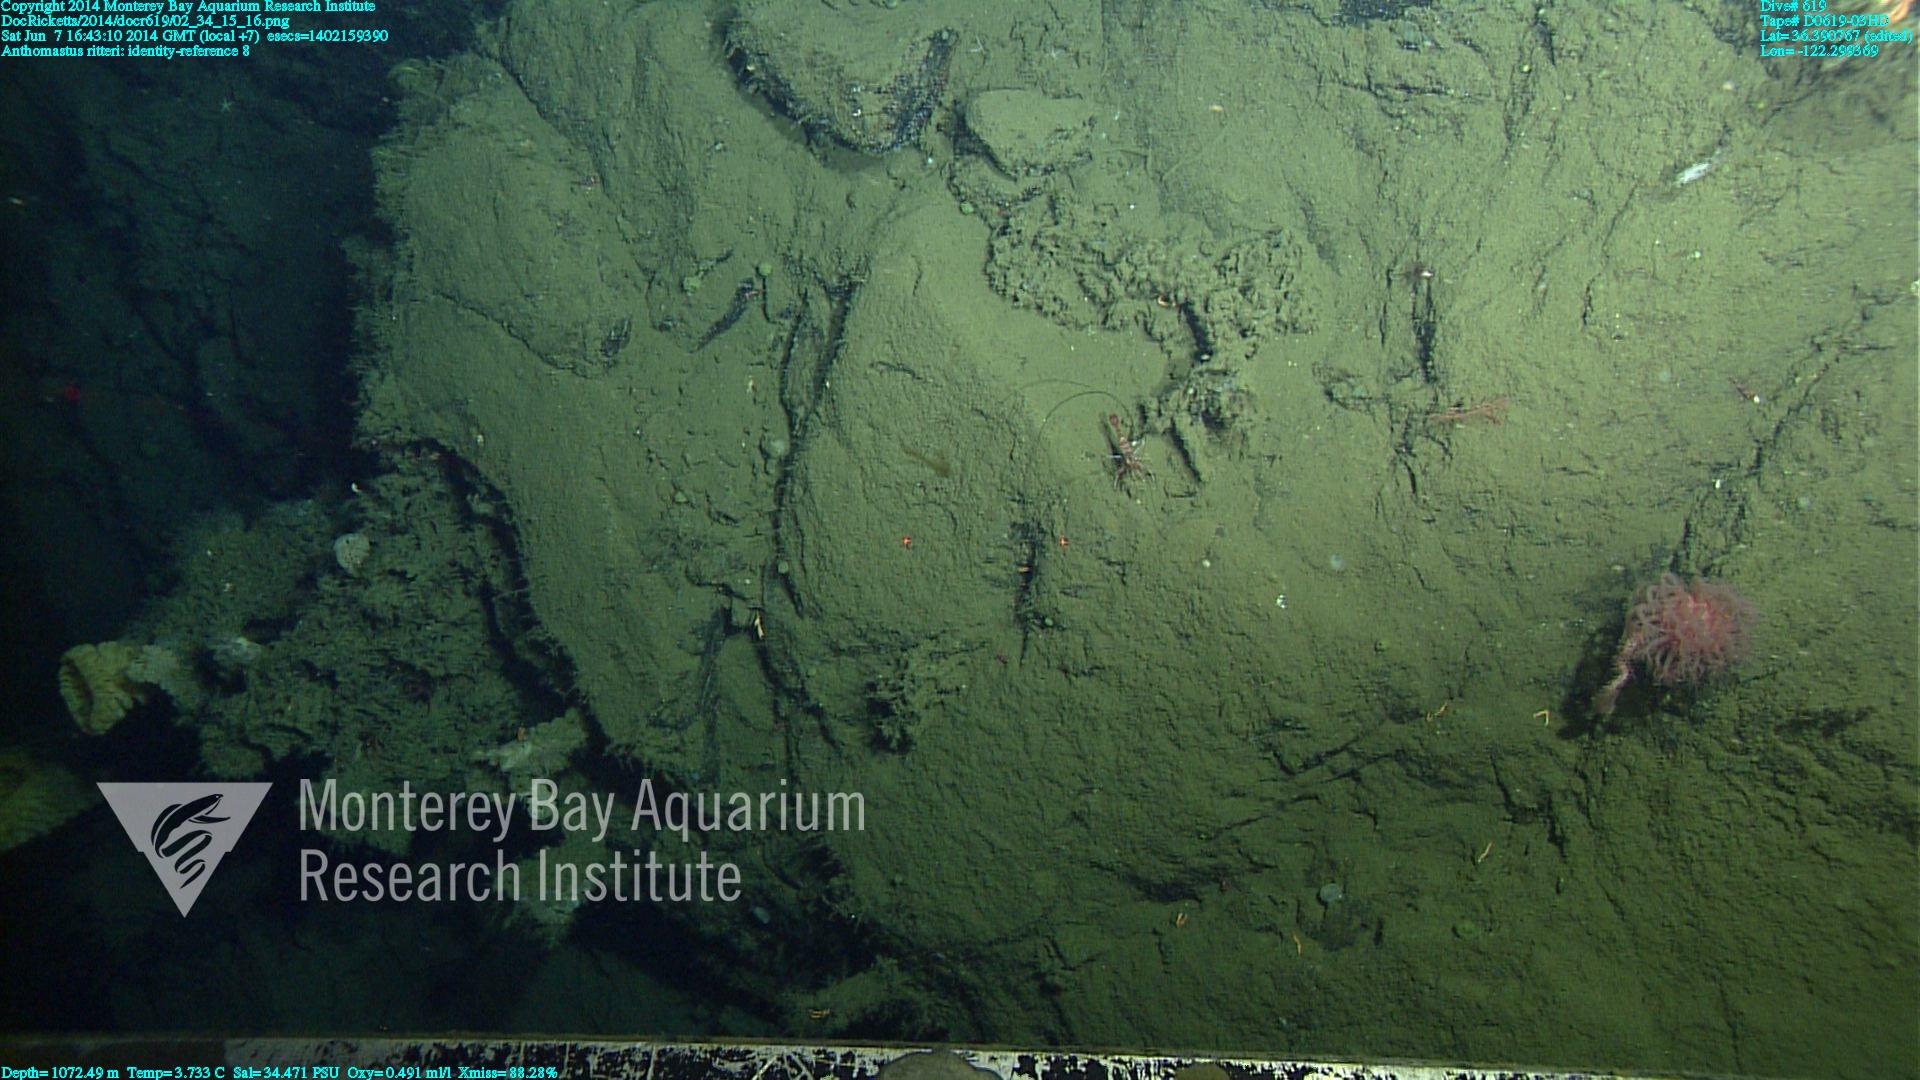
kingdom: Animalia
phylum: Cnidaria
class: Anthozoa
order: Scleralcyonacea
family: Coralliidae
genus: Heteropolypus
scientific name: Heteropolypus ritteri
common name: Ritter's soft coral
